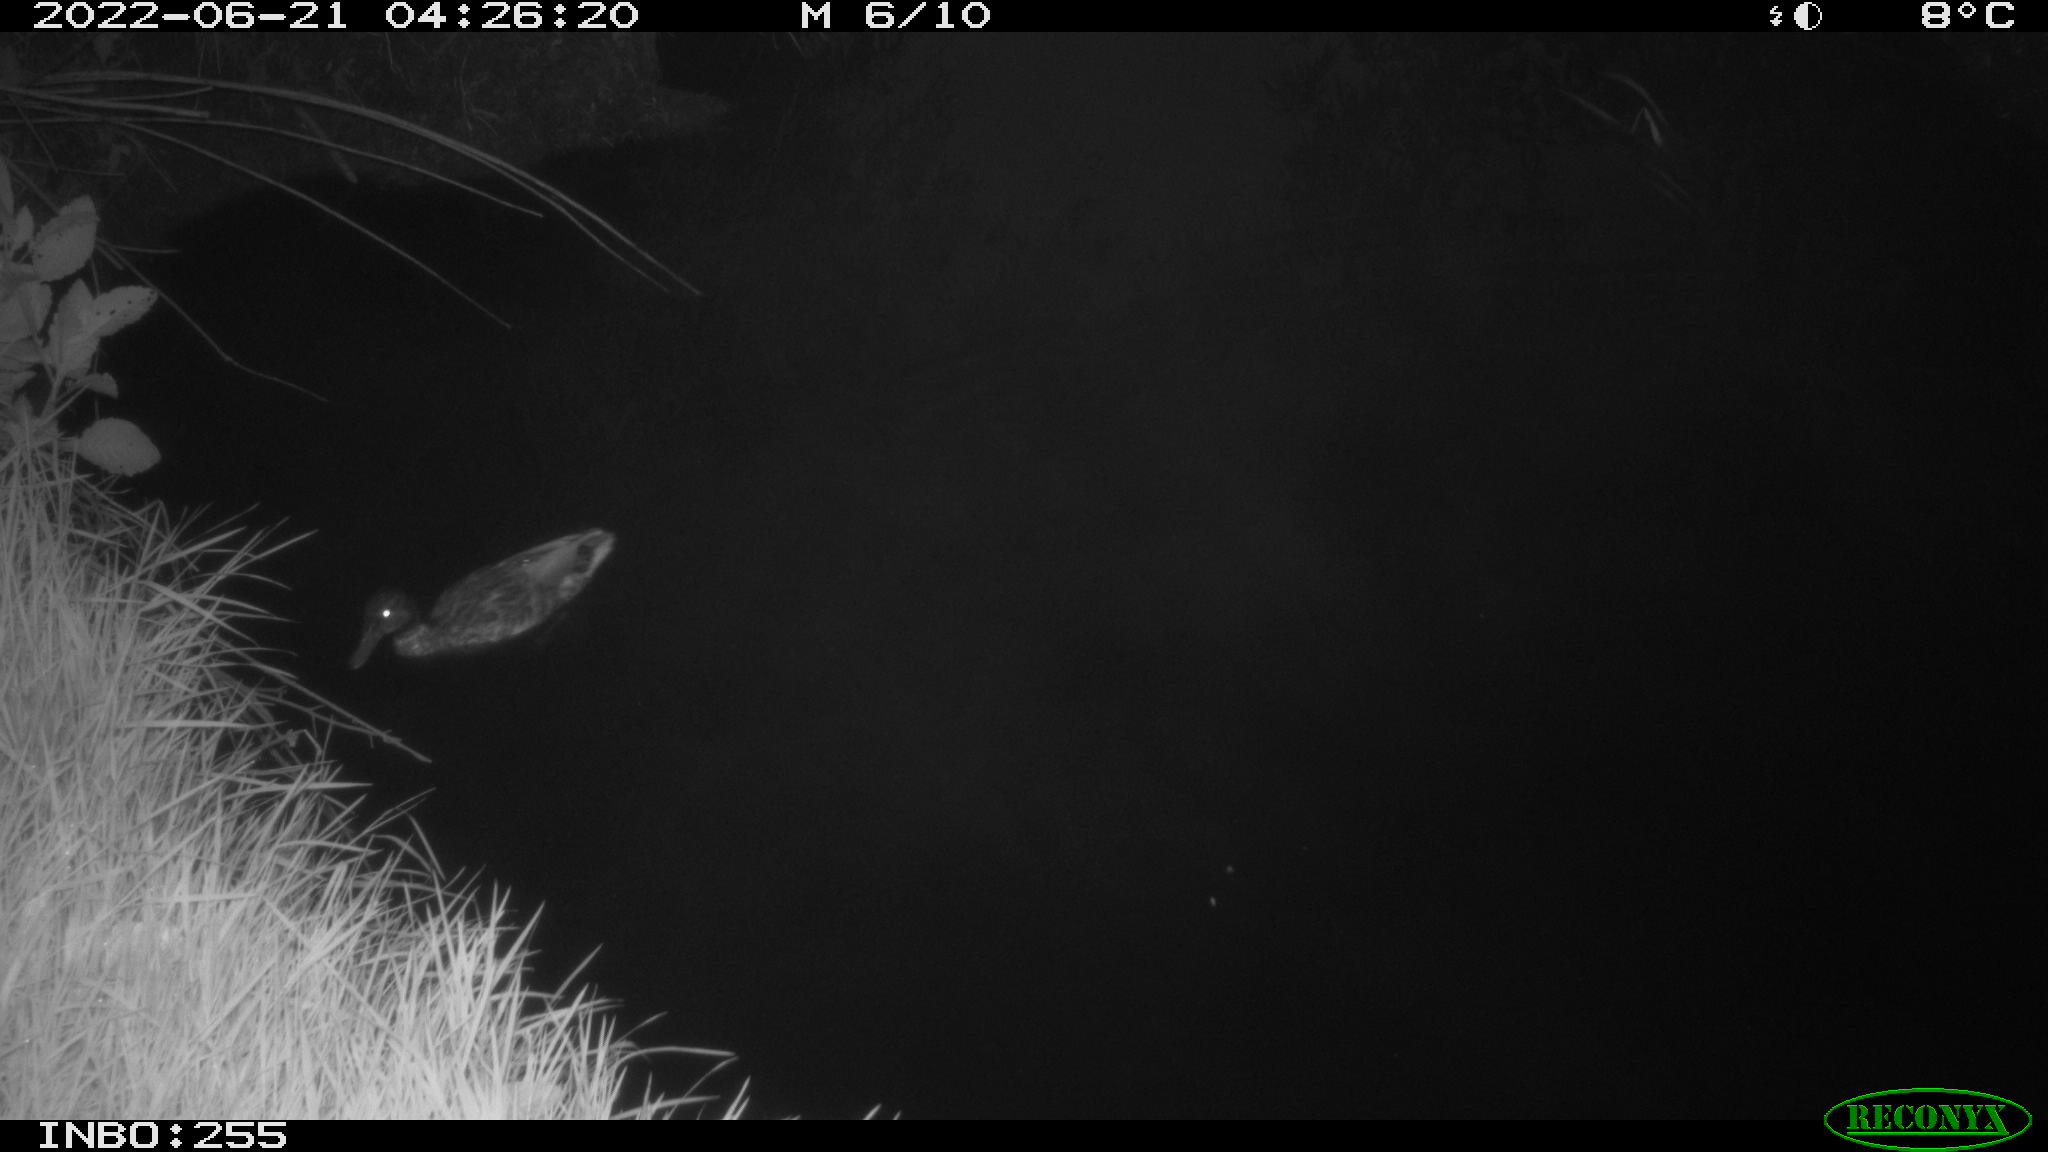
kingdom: Animalia
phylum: Chordata
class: Aves
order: Anseriformes
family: Anatidae
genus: Anas
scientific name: Anas platyrhynchos
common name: Mallard
